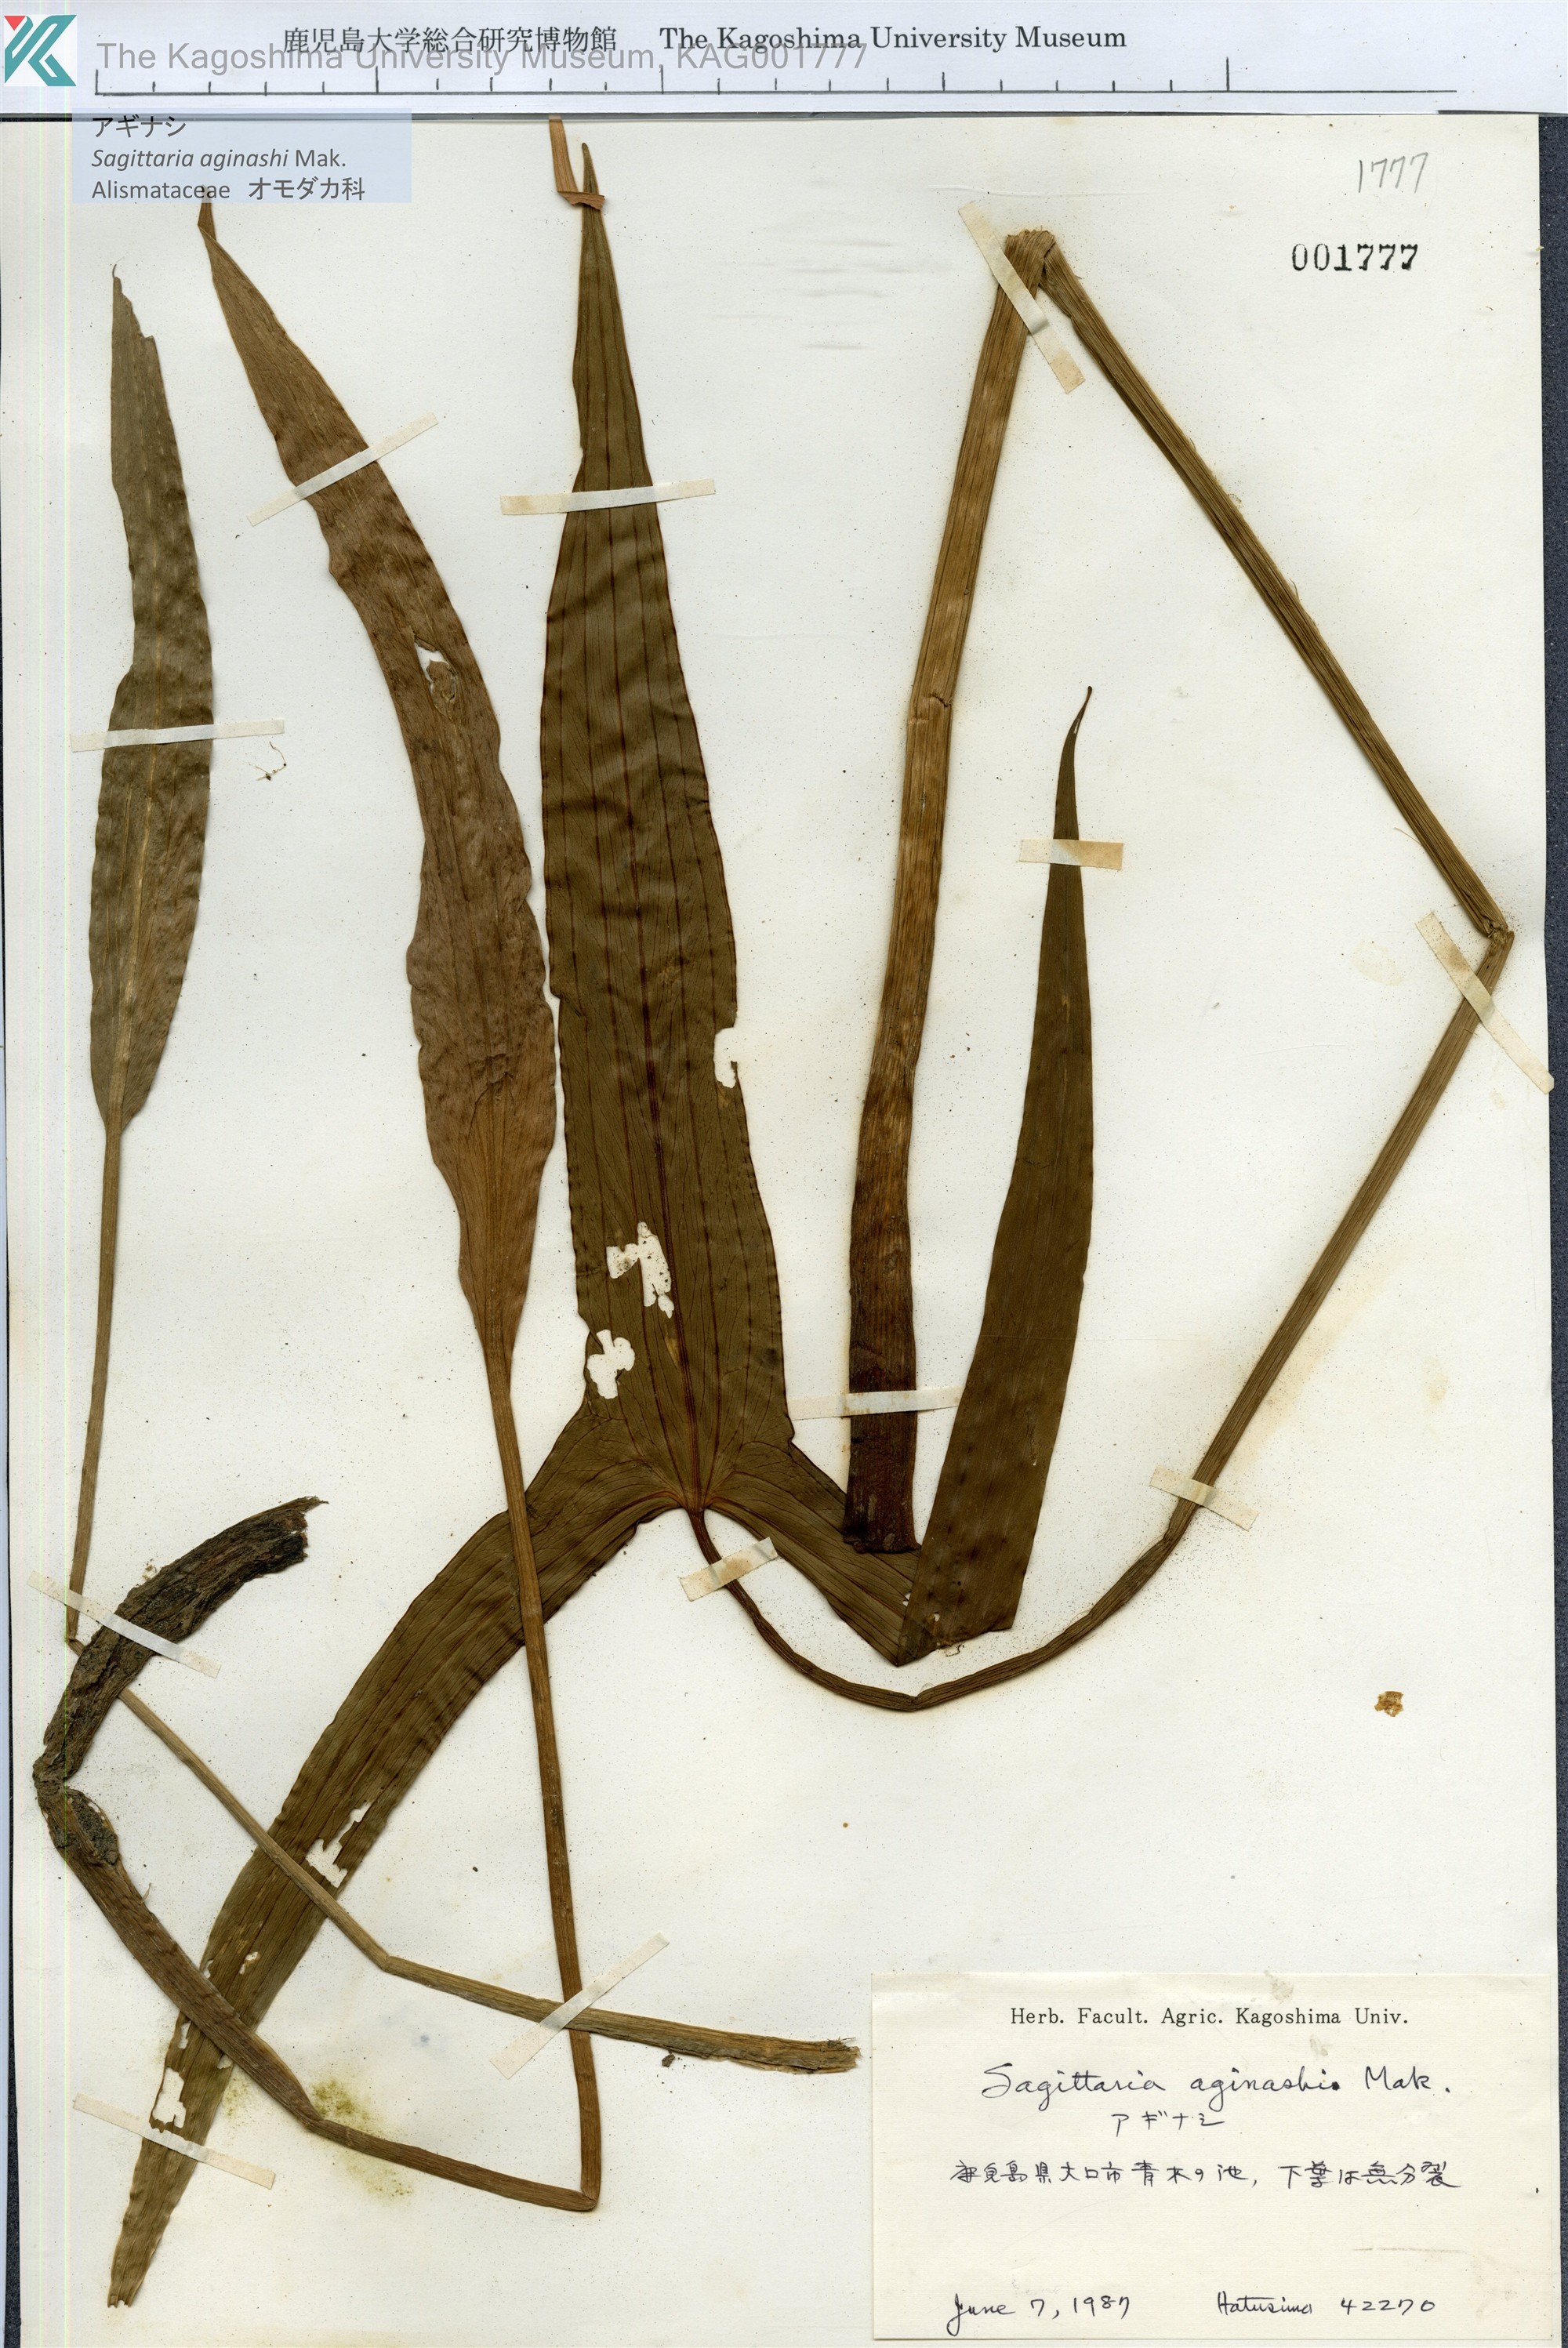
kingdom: Plantae
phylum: Tracheophyta
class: Liliopsida
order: Alismatales
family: Alismataceae
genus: Sagittaria
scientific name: Sagittaria aginashi
